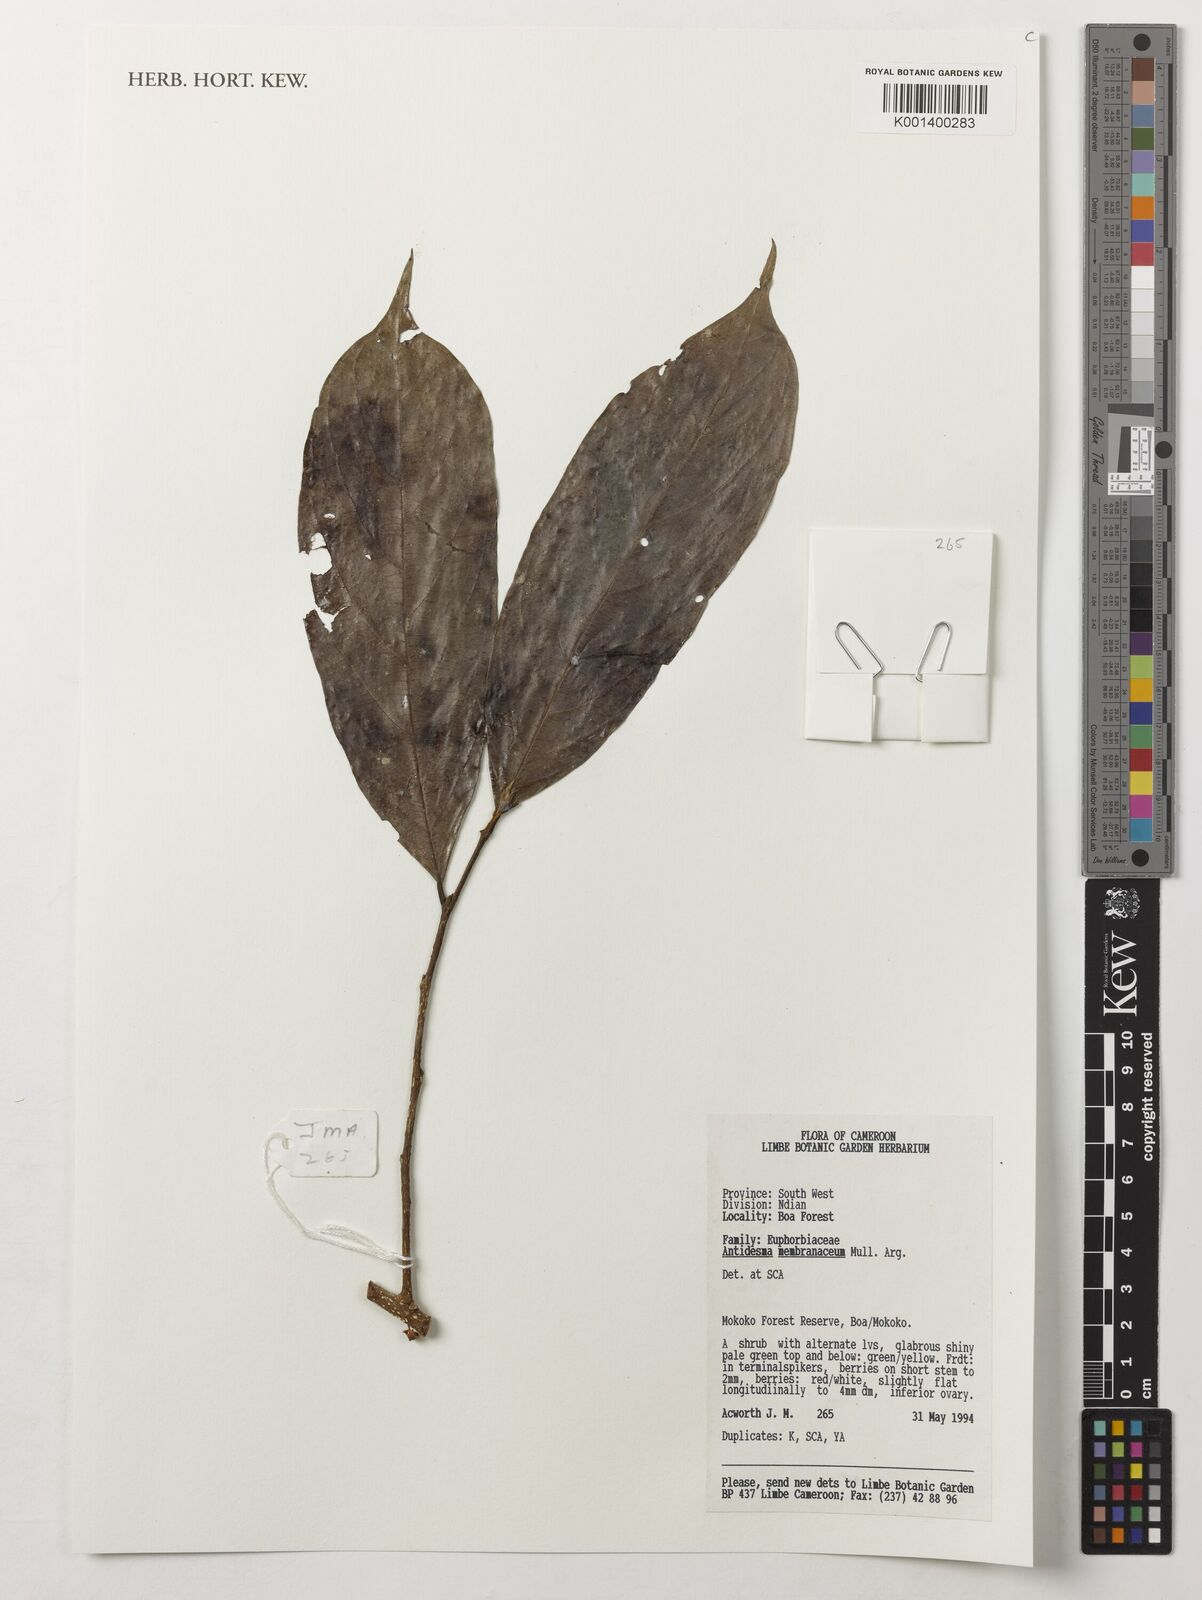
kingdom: Plantae
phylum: Tracheophyta
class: Magnoliopsida
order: Malpighiales
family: Phyllanthaceae
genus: Antidesma
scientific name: Antidesma membranaceum
